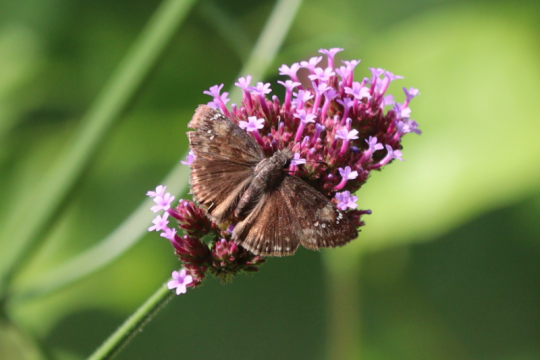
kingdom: Animalia
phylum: Arthropoda
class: Insecta
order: Lepidoptera
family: Hesperiidae
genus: Gesta
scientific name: Gesta
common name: Wild Indigo Duskywing
